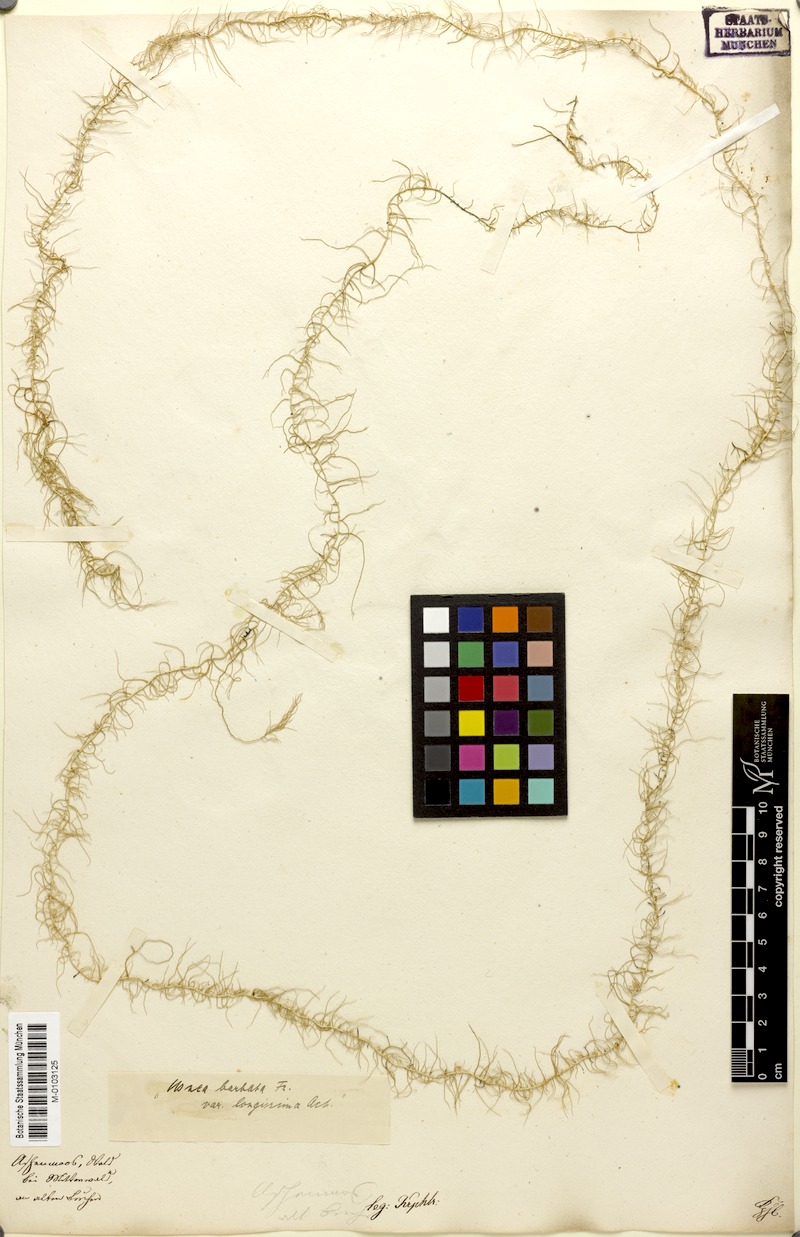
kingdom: Fungi
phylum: Ascomycota
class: Lecanoromycetes
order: Lecanorales
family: Parmeliaceae
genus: Dolichousnea
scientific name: Dolichousnea longissima
